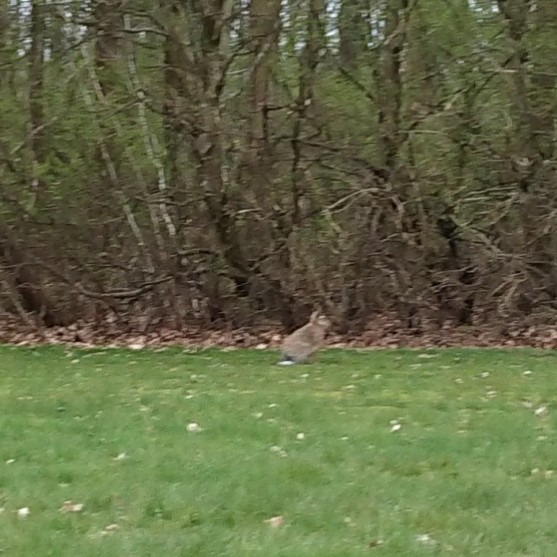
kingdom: Animalia
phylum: Chordata
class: Mammalia
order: Lagomorpha
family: Leporidae
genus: Lepus
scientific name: Lepus europaeus
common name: Hare
